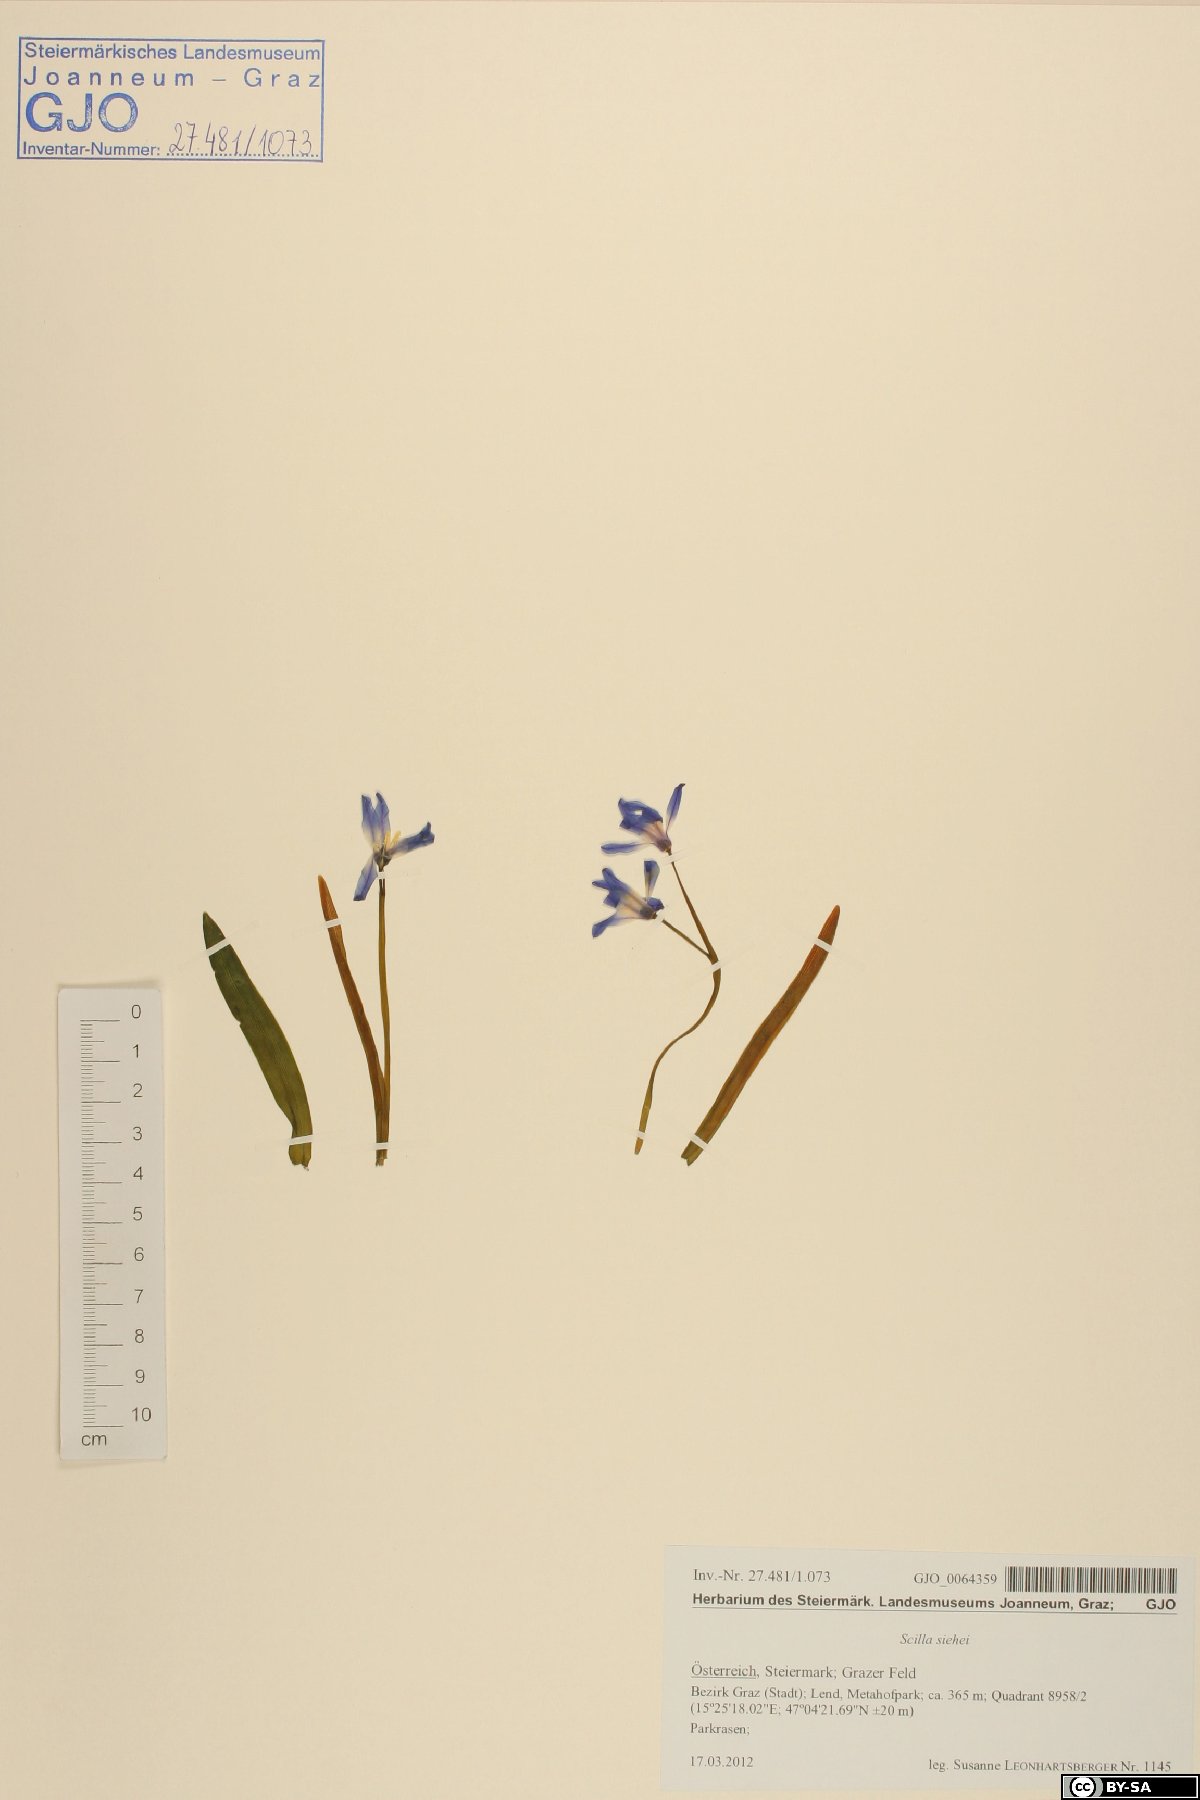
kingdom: Plantae
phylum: Tracheophyta
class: Liliopsida
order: Asparagales
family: Asparagaceae
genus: Scilla
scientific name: Scilla forbesii
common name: Glory-of-the-snow
